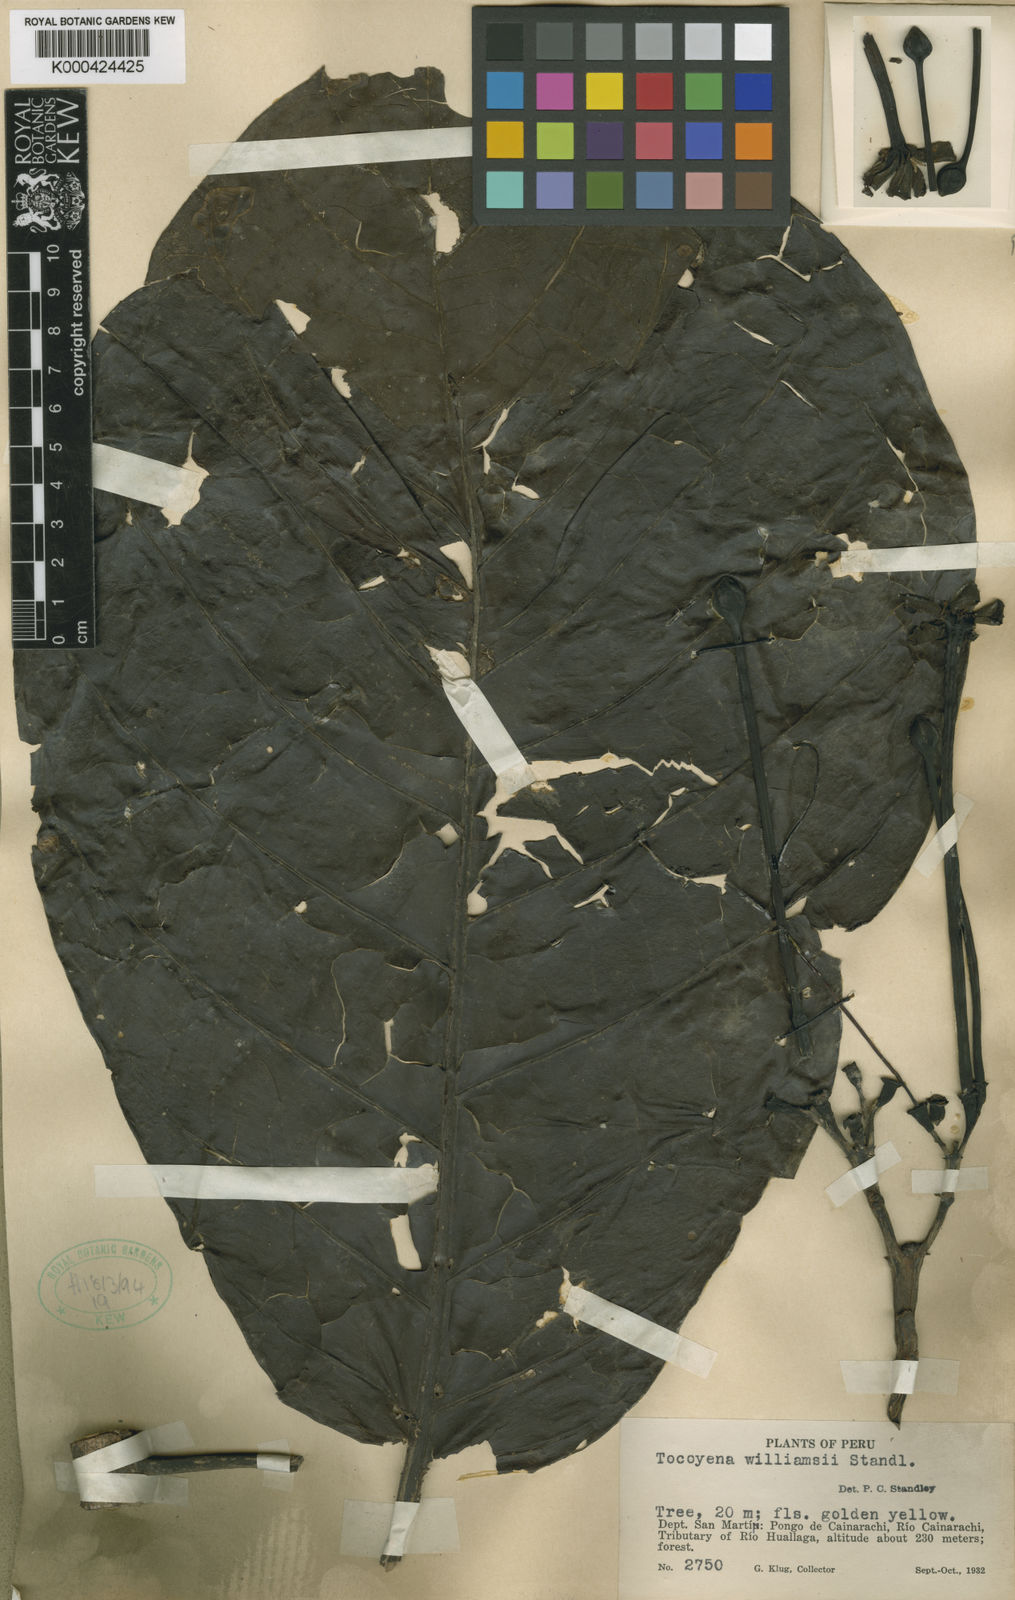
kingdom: Plantae
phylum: Tracheophyta
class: Magnoliopsida
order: Gentianales
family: Rubiaceae
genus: Tocoyena
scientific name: Tocoyena pittieri
